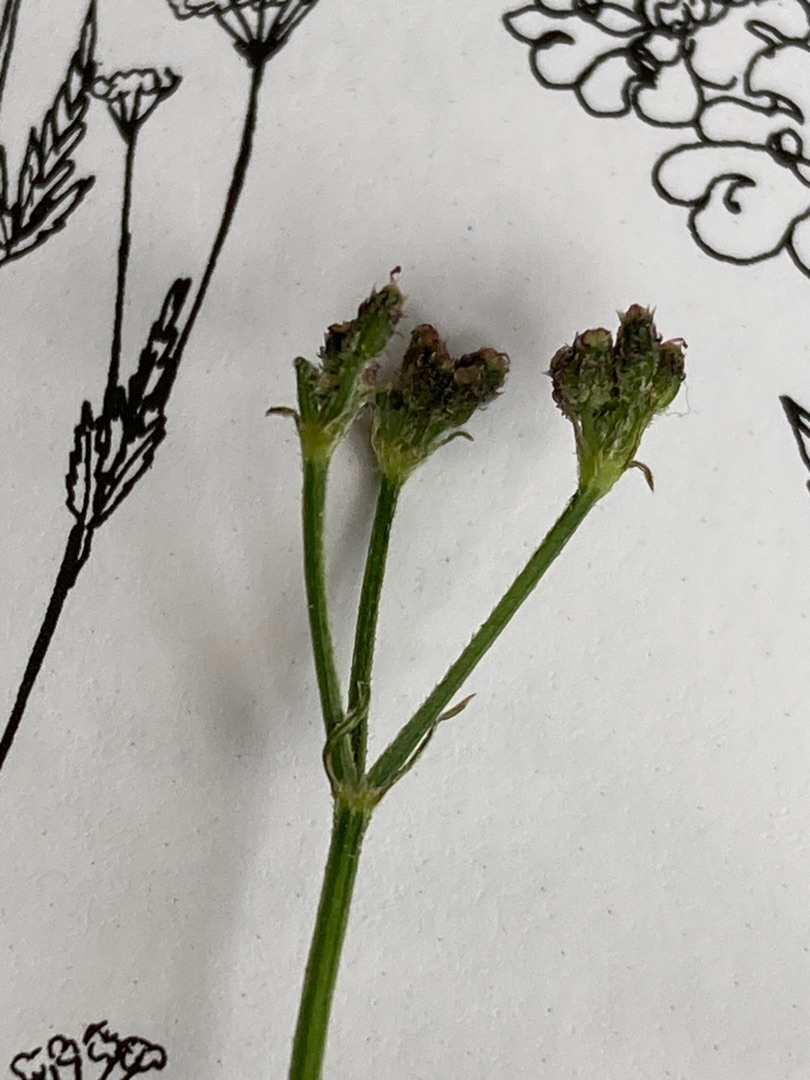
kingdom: Plantae
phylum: Tracheophyta
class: Magnoliopsida
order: Apiales
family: Apiaceae
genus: Torilis
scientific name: Torilis japonica
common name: Hvas randfrø
